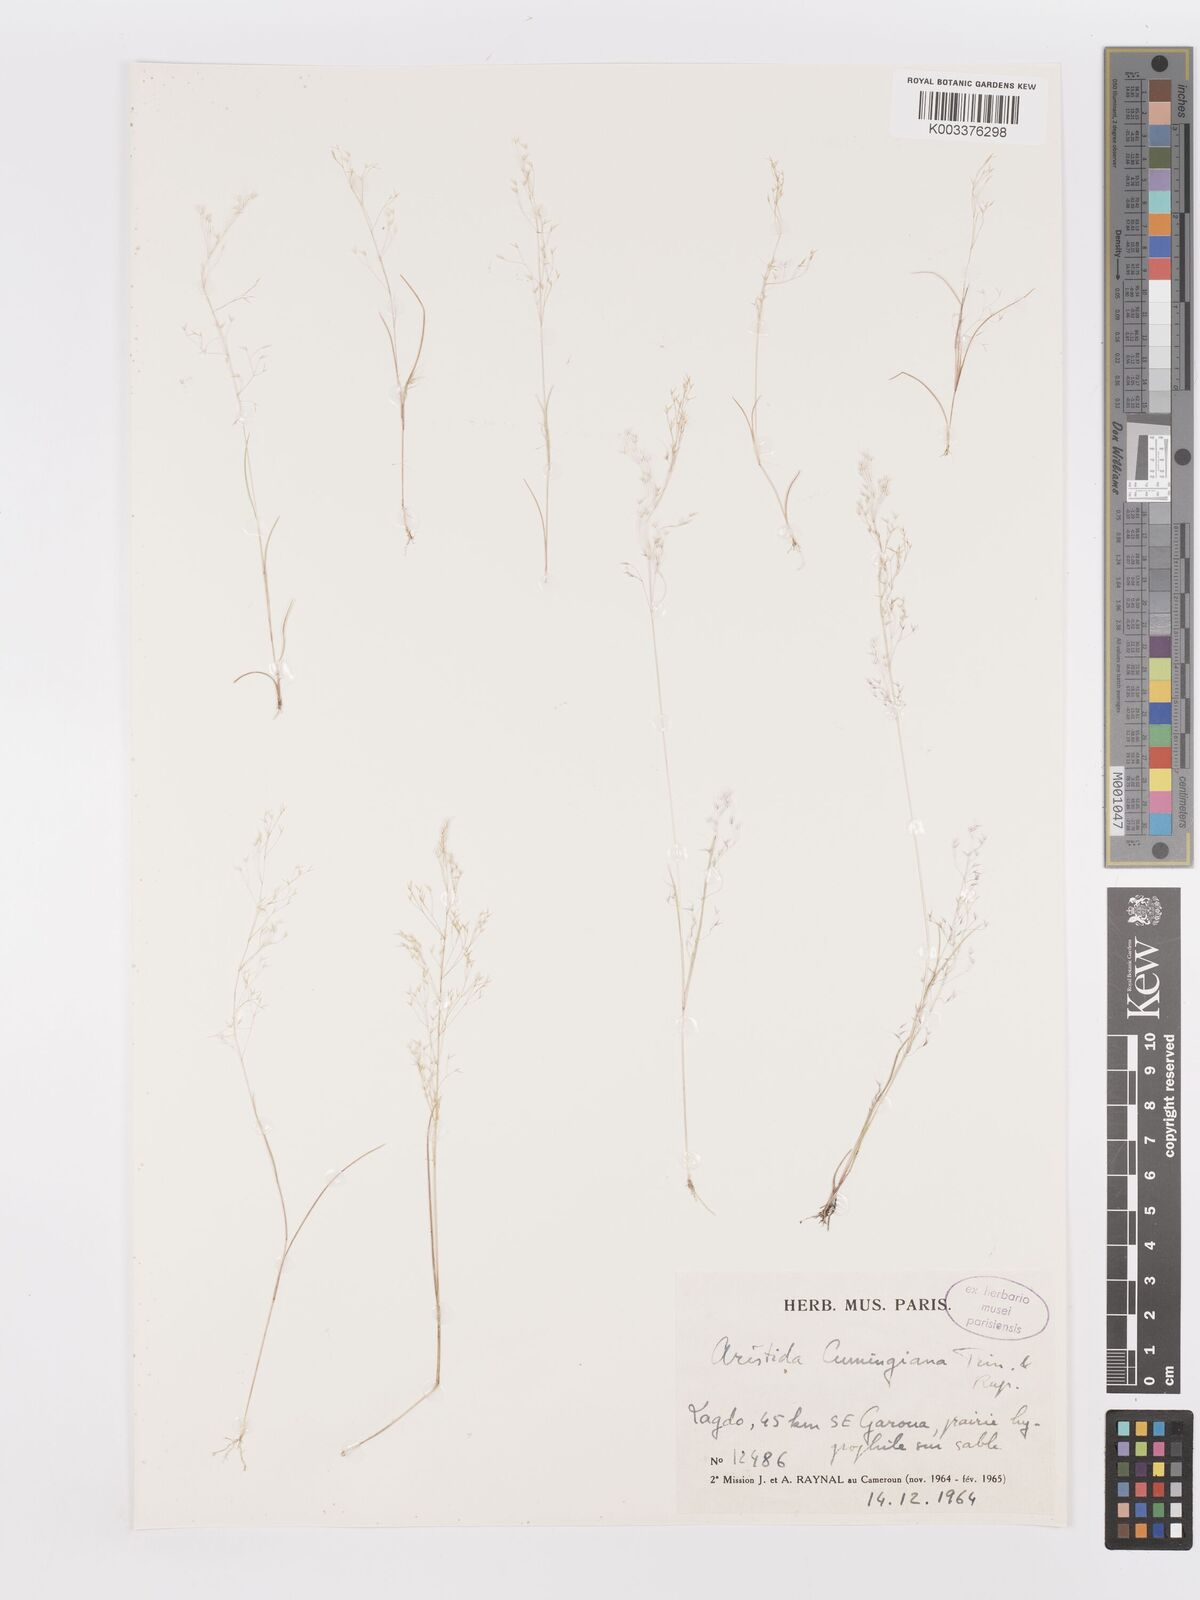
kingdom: Plantae
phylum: Tracheophyta
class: Liliopsida
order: Poales
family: Poaceae
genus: Aristida
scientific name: Aristida cumingiana
